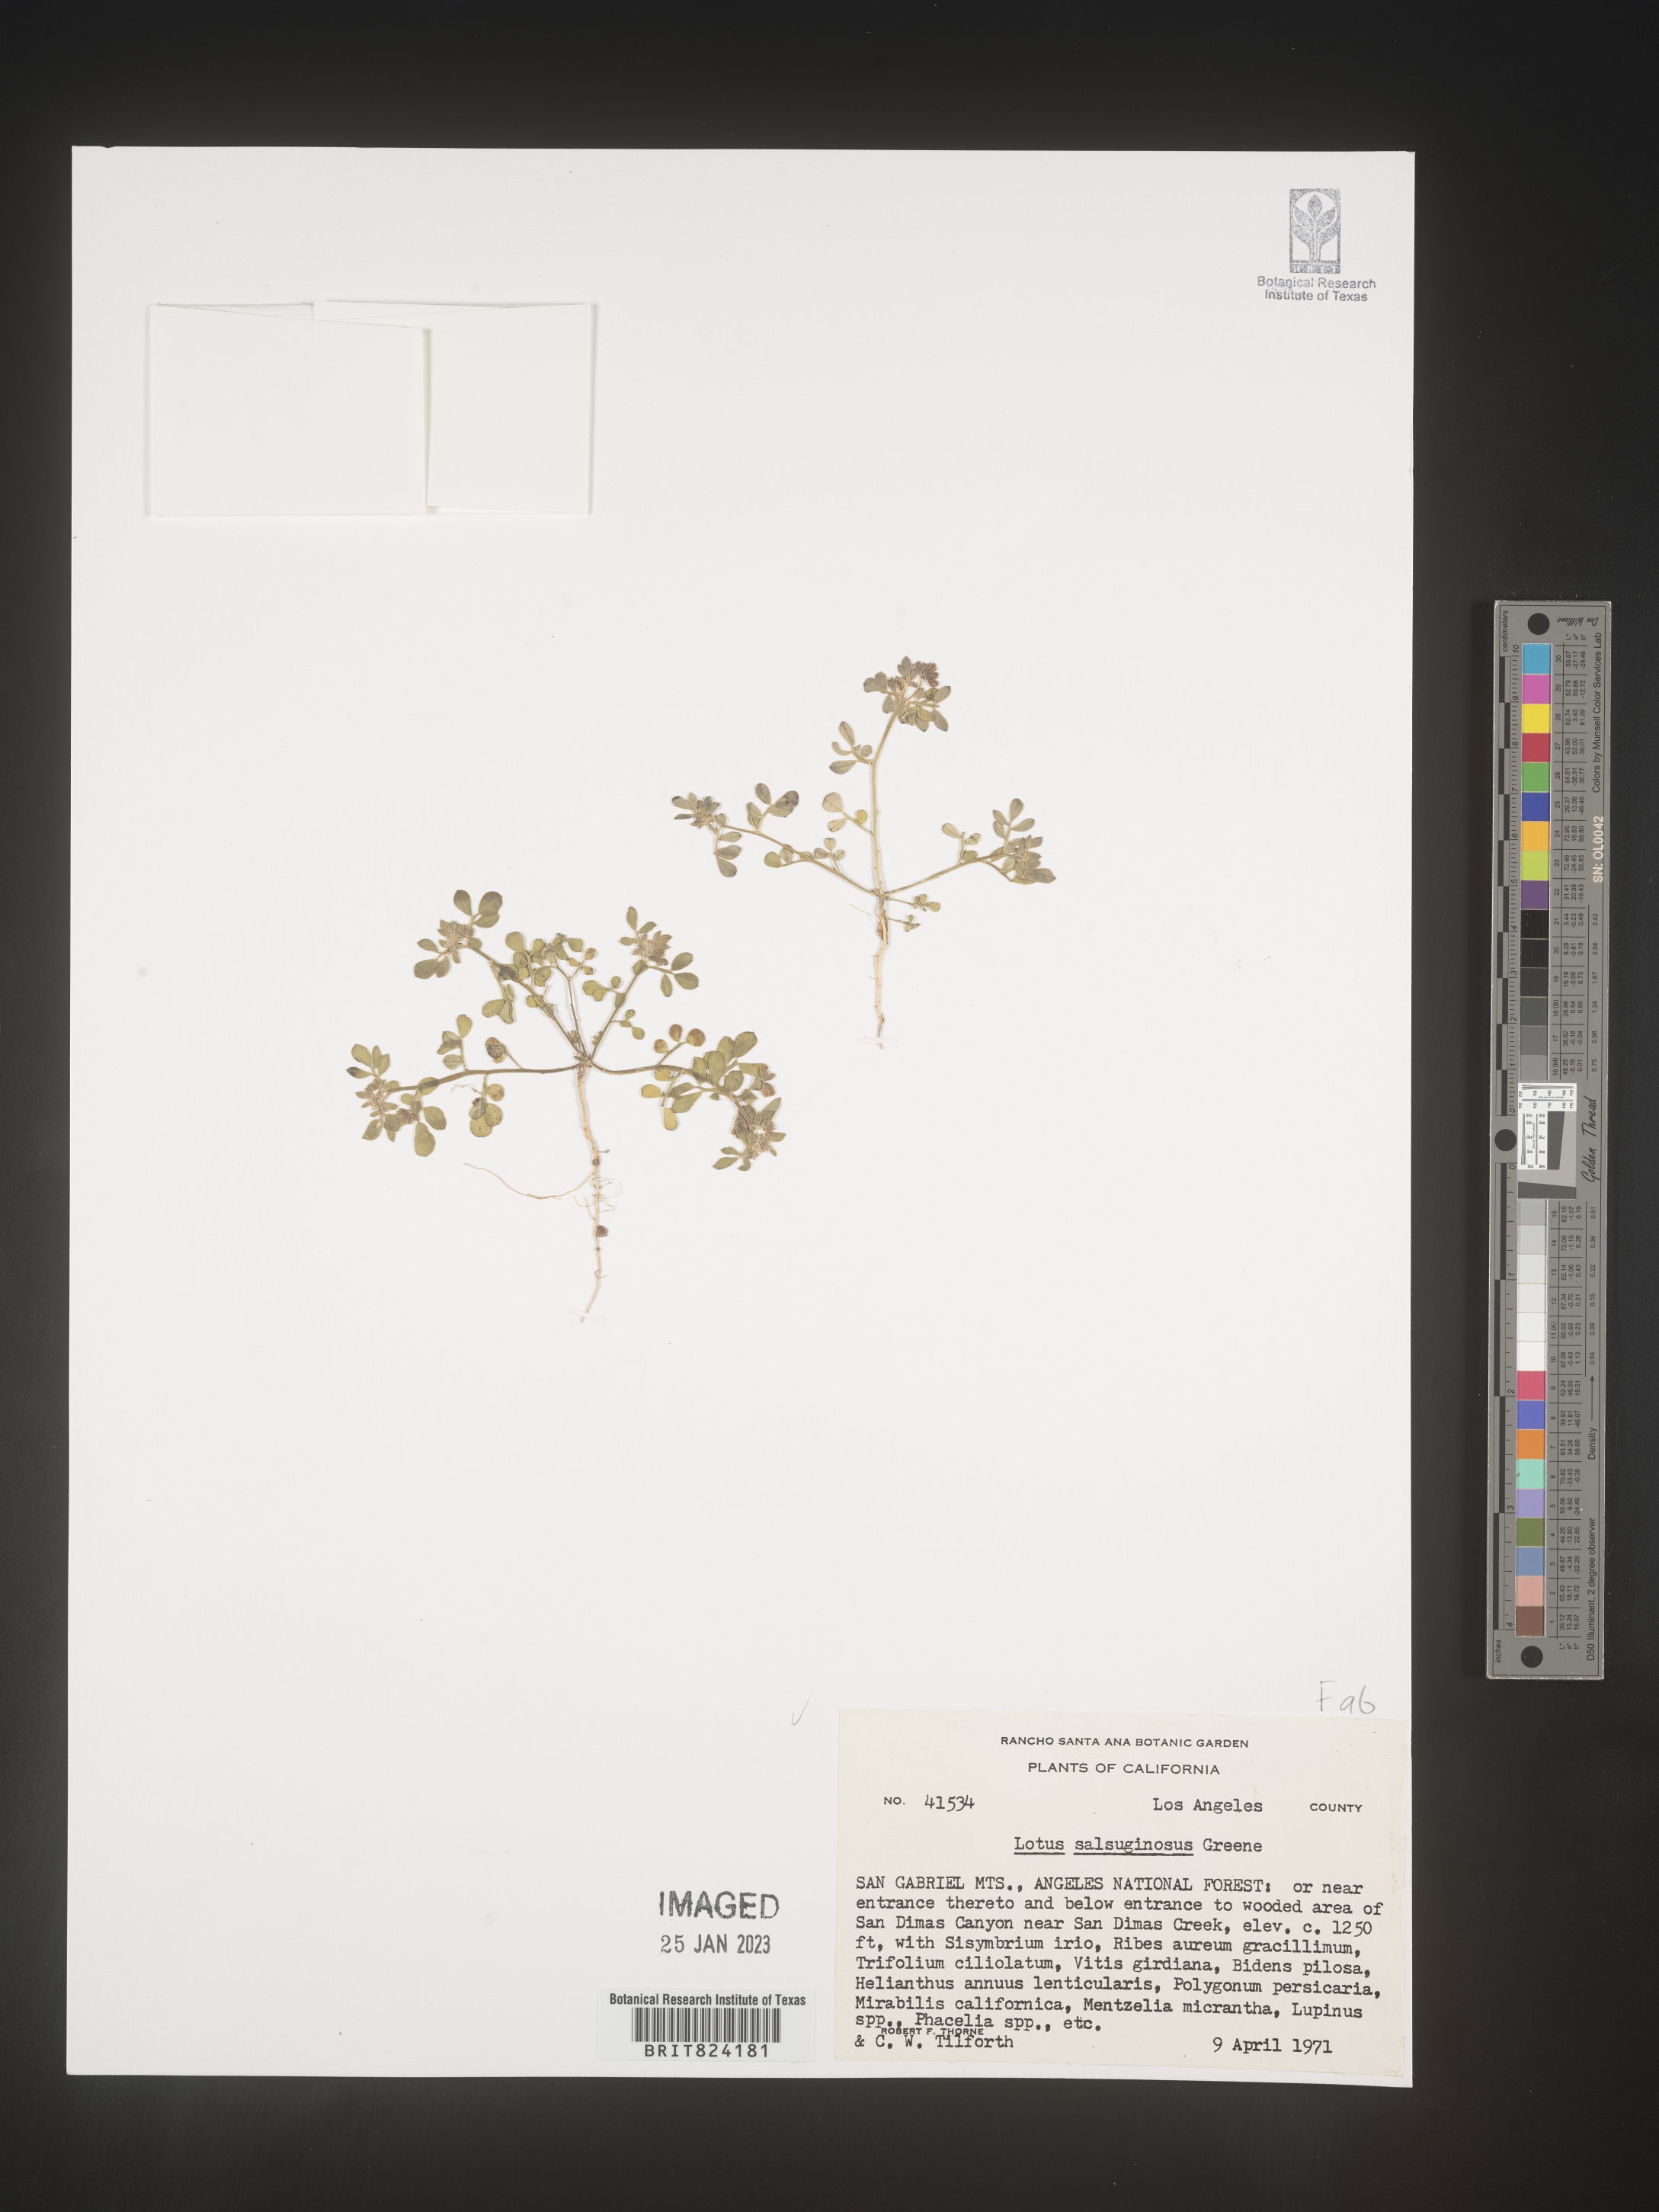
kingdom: Plantae
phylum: Tracheophyta
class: Magnoliopsida
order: Fabales
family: Fabaceae
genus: Lotus
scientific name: Lotus
